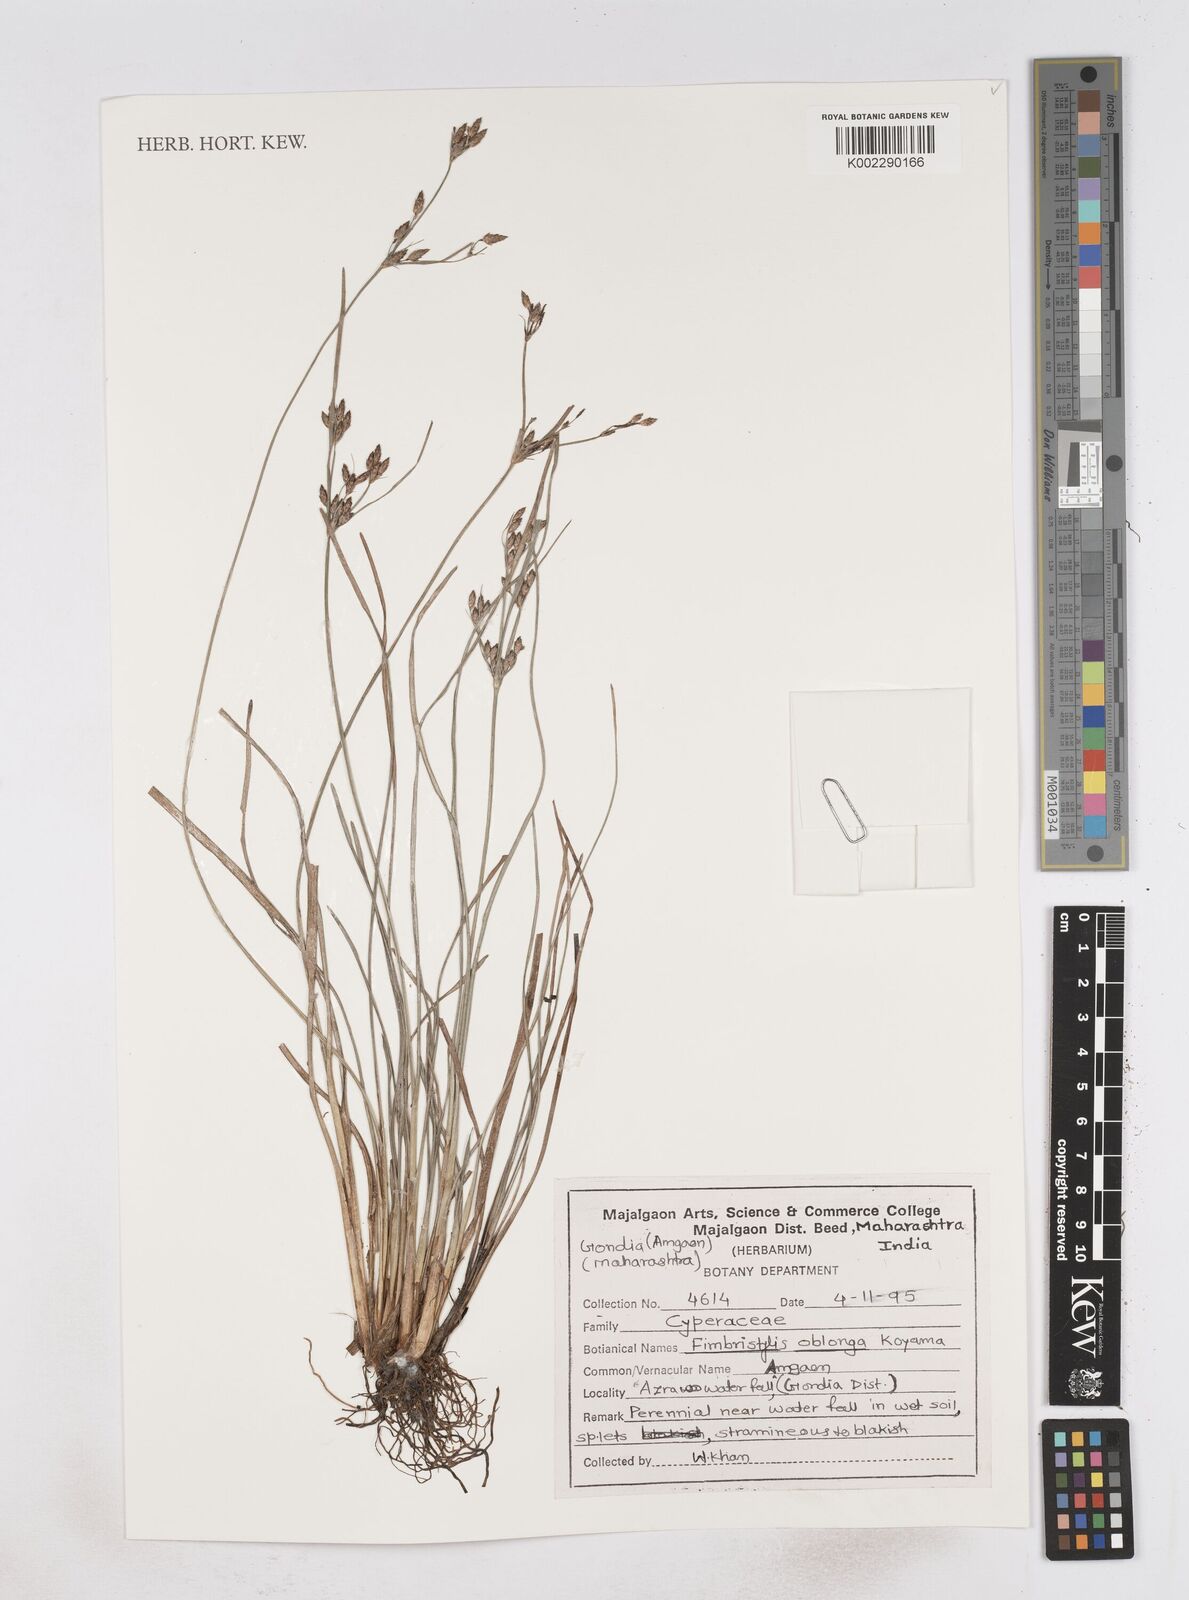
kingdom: Plantae
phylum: Tracheophyta
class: Liliopsida
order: Poales
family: Cyperaceae
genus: Fimbristylis
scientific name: Fimbristylis oblonga
